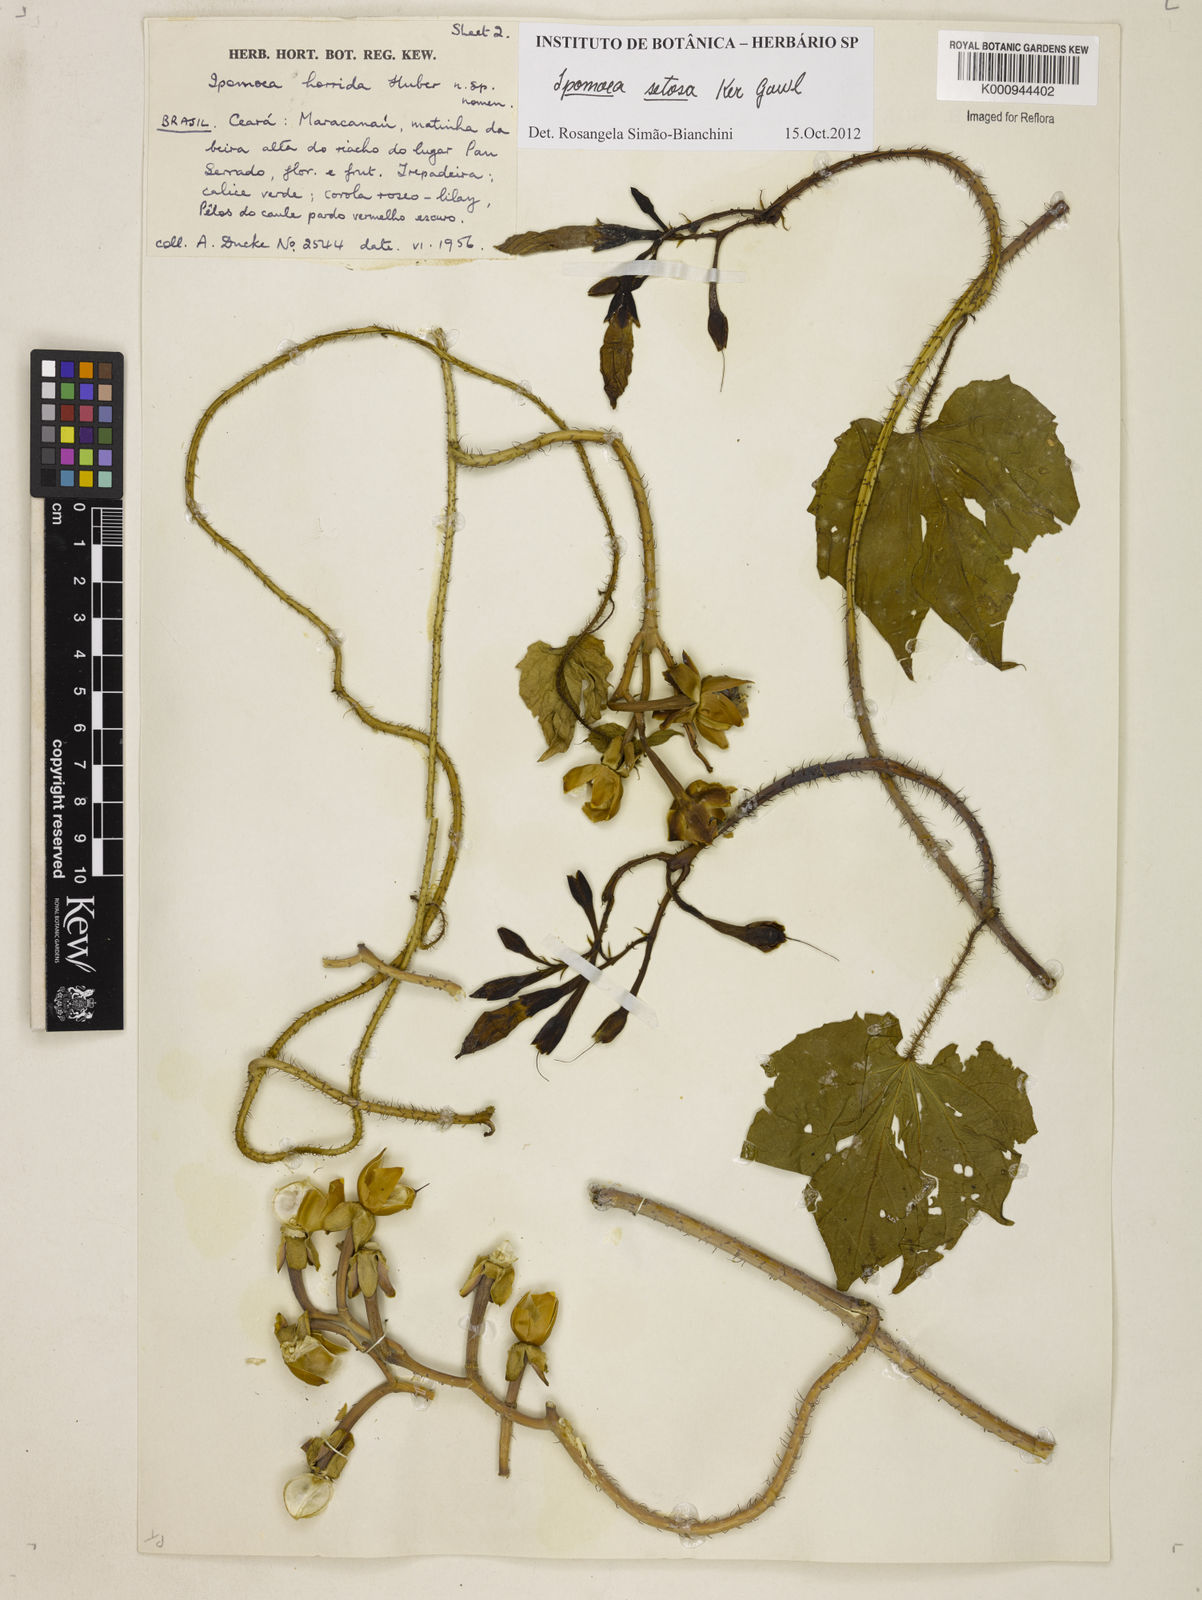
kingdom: Plantae
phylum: Tracheophyta
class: Magnoliopsida
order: Solanales
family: Convolvulaceae
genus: Ipomoea
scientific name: Ipomoea setosa
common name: Brazilian morning-glory
